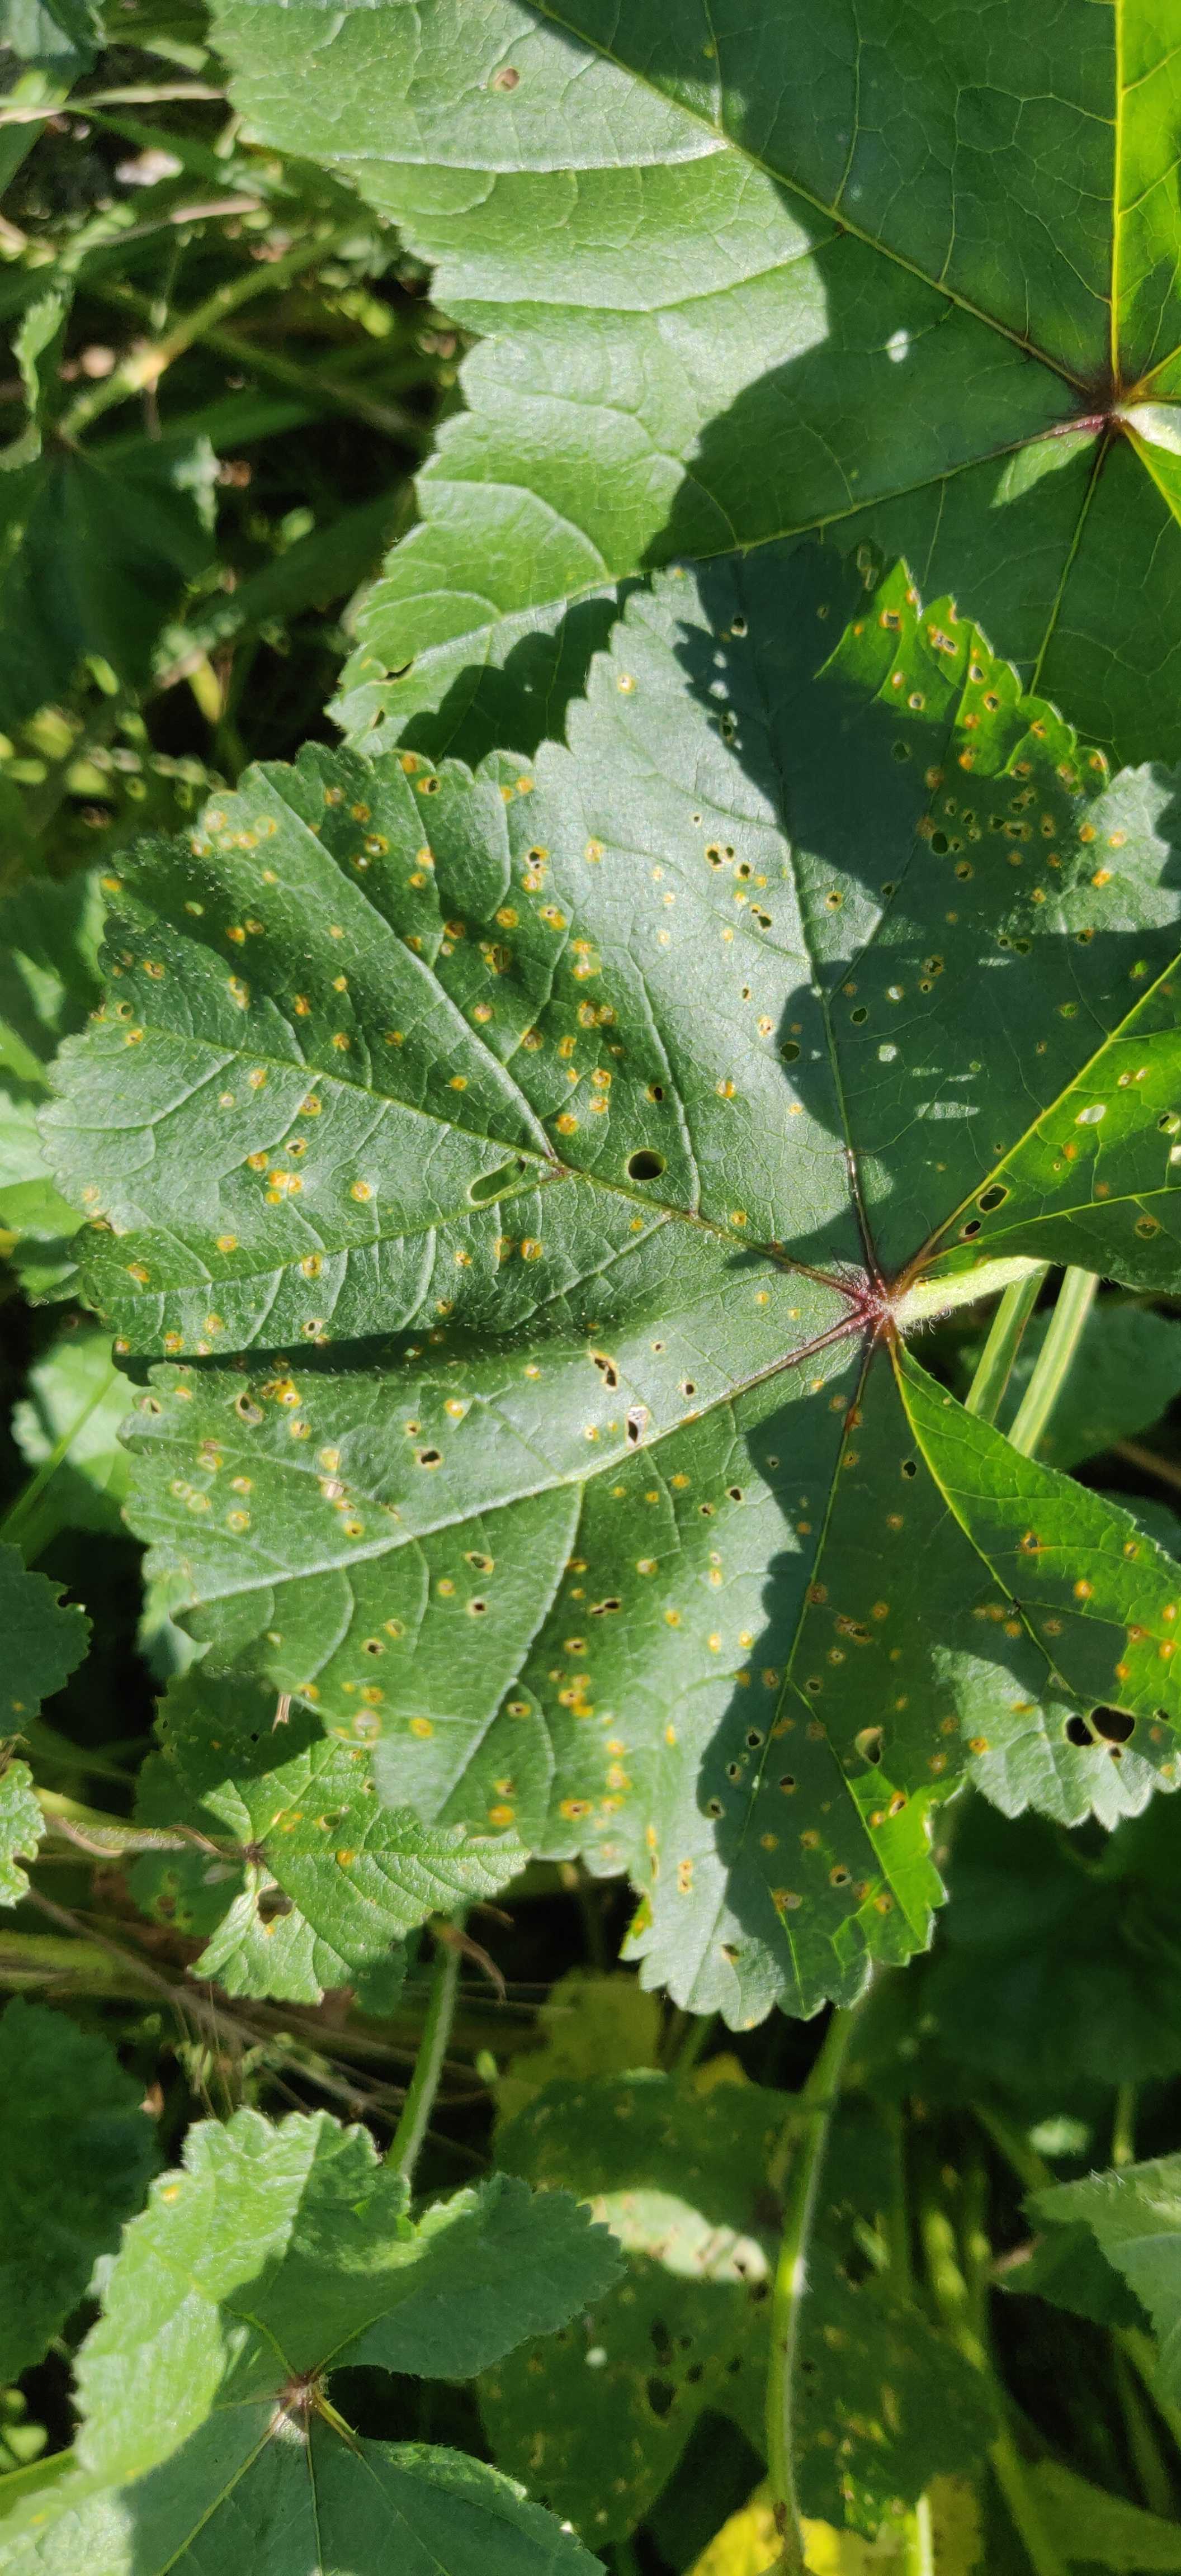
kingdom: Fungi
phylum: Basidiomycota
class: Pucciniomycetes
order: Pucciniales
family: Pucciniaceae
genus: Puccinia
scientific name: Puccinia malvacearum
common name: stokrose-tvecellerust
